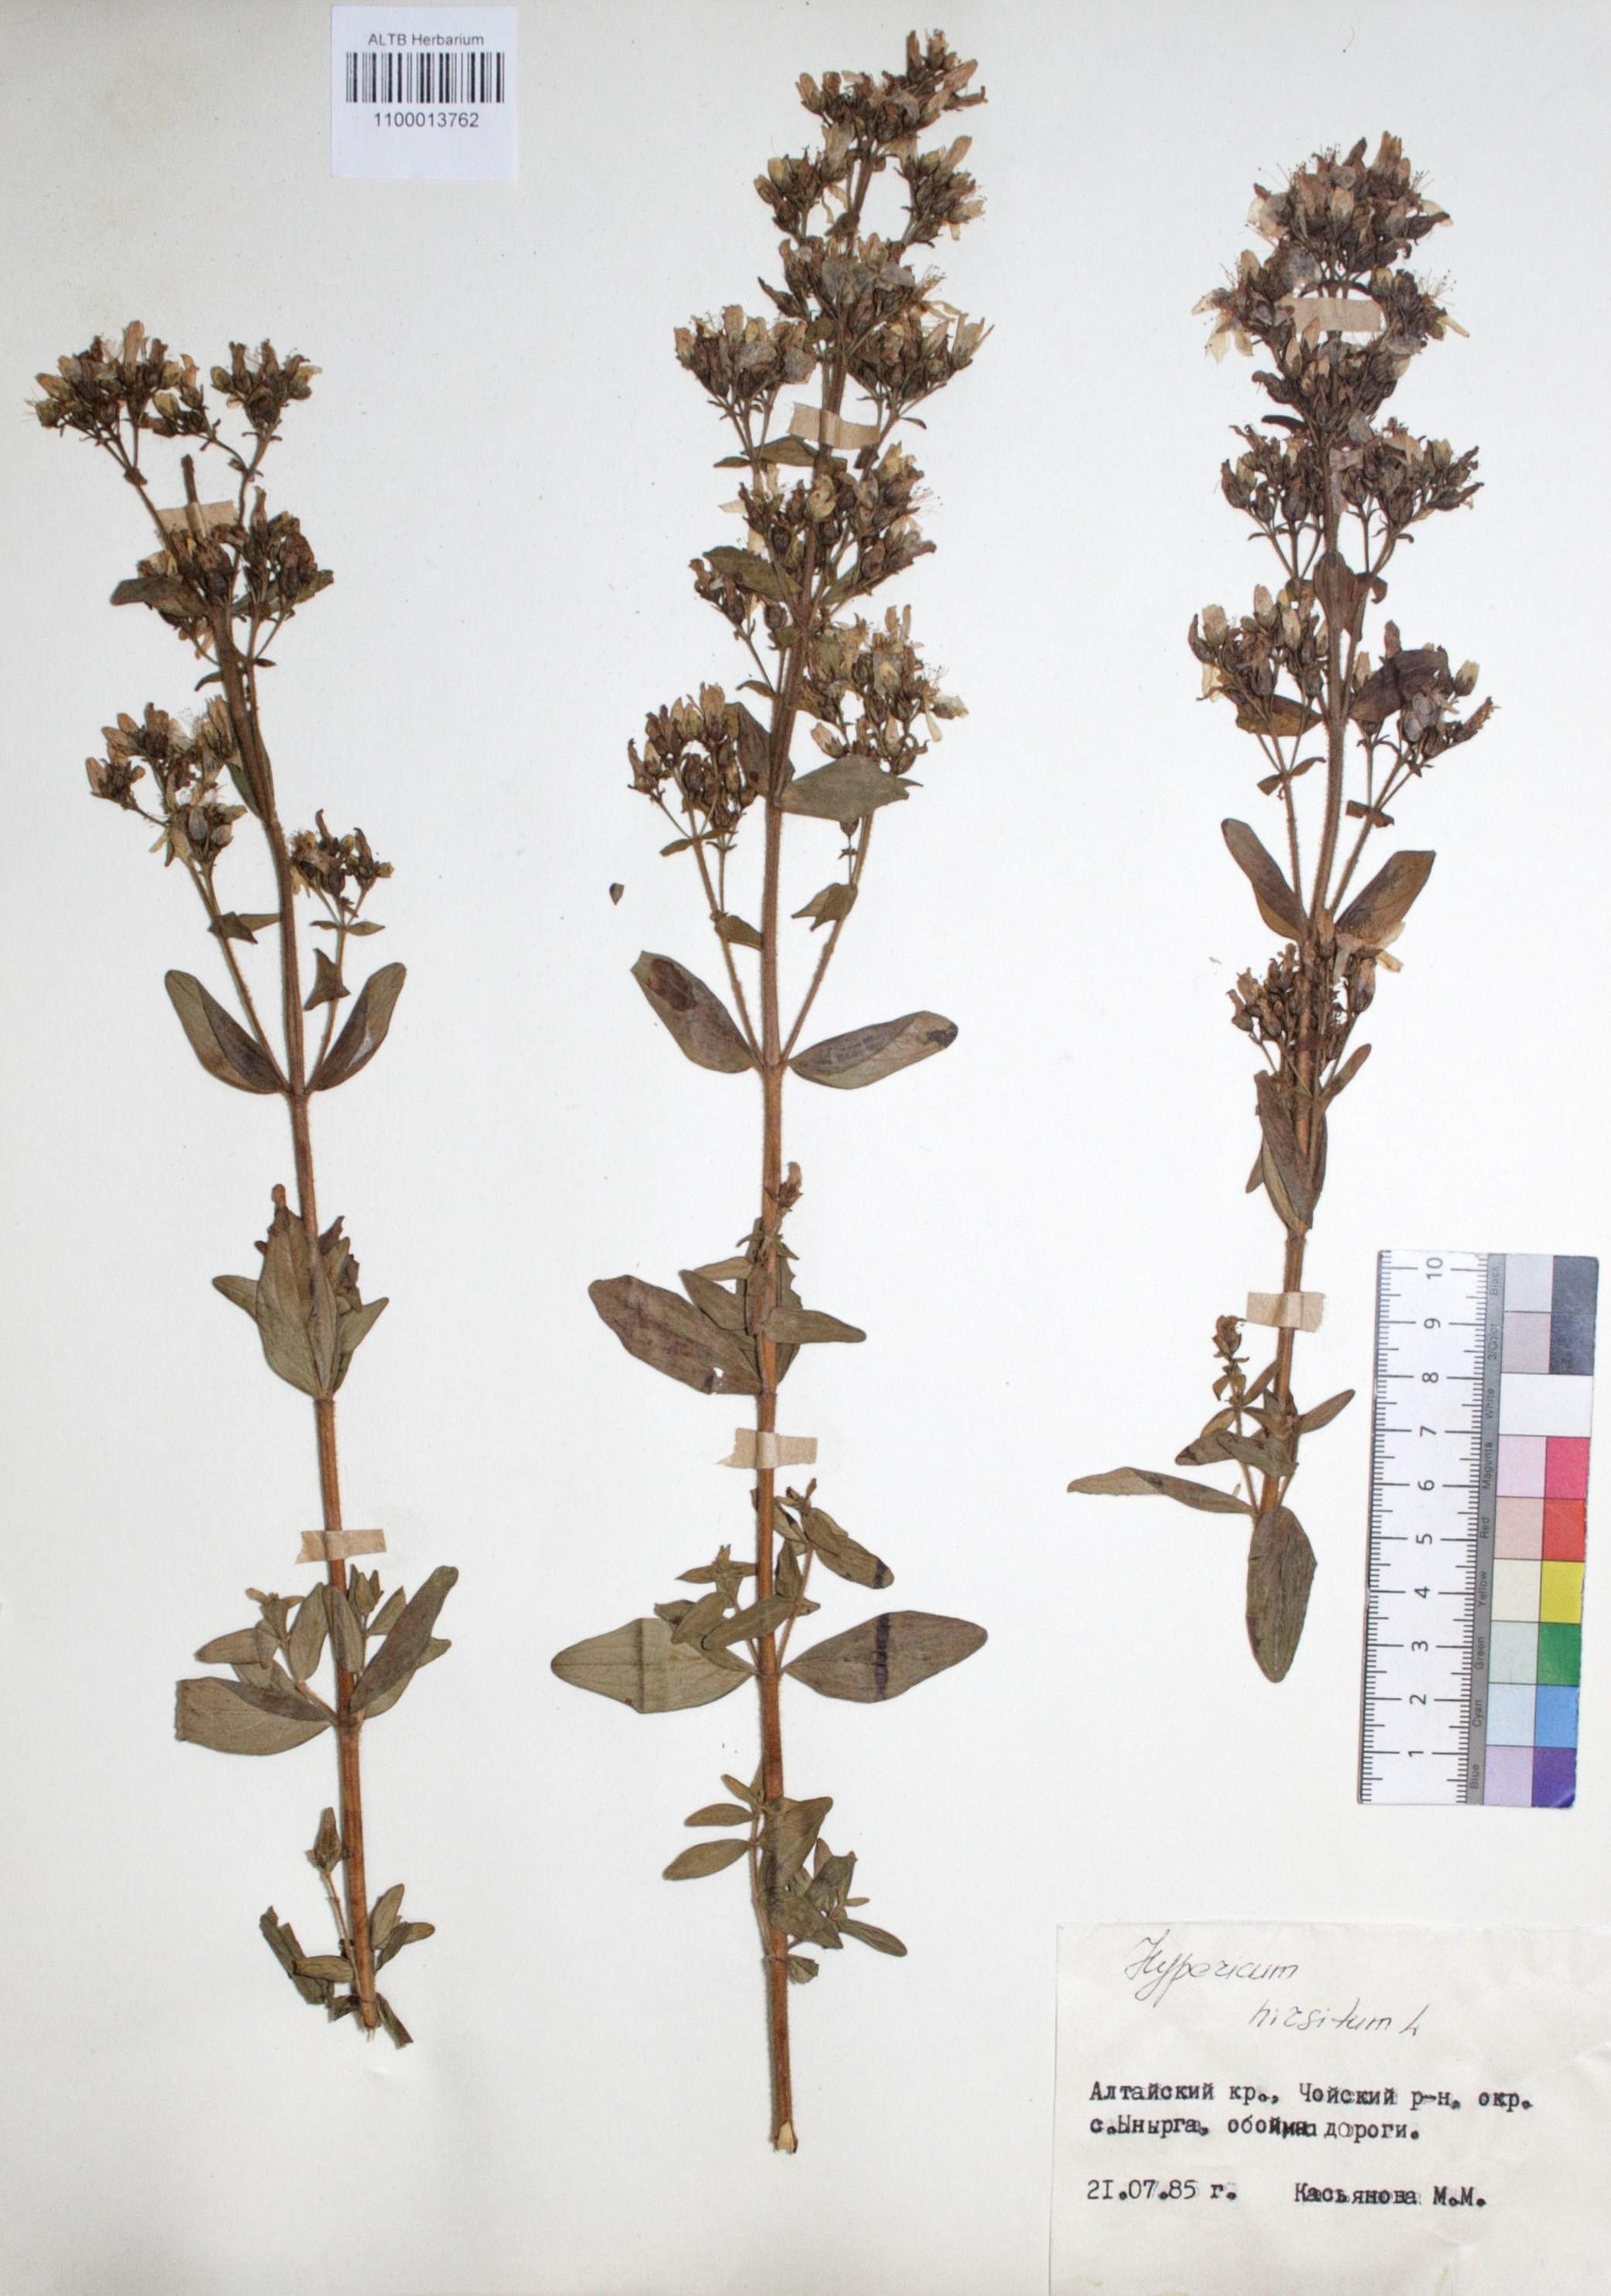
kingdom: Plantae
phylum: Tracheophyta
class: Magnoliopsida
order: Malpighiales
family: Hypericaceae
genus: Hypericum
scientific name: Hypericum hirsutum
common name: Hairy st. john's-wort
